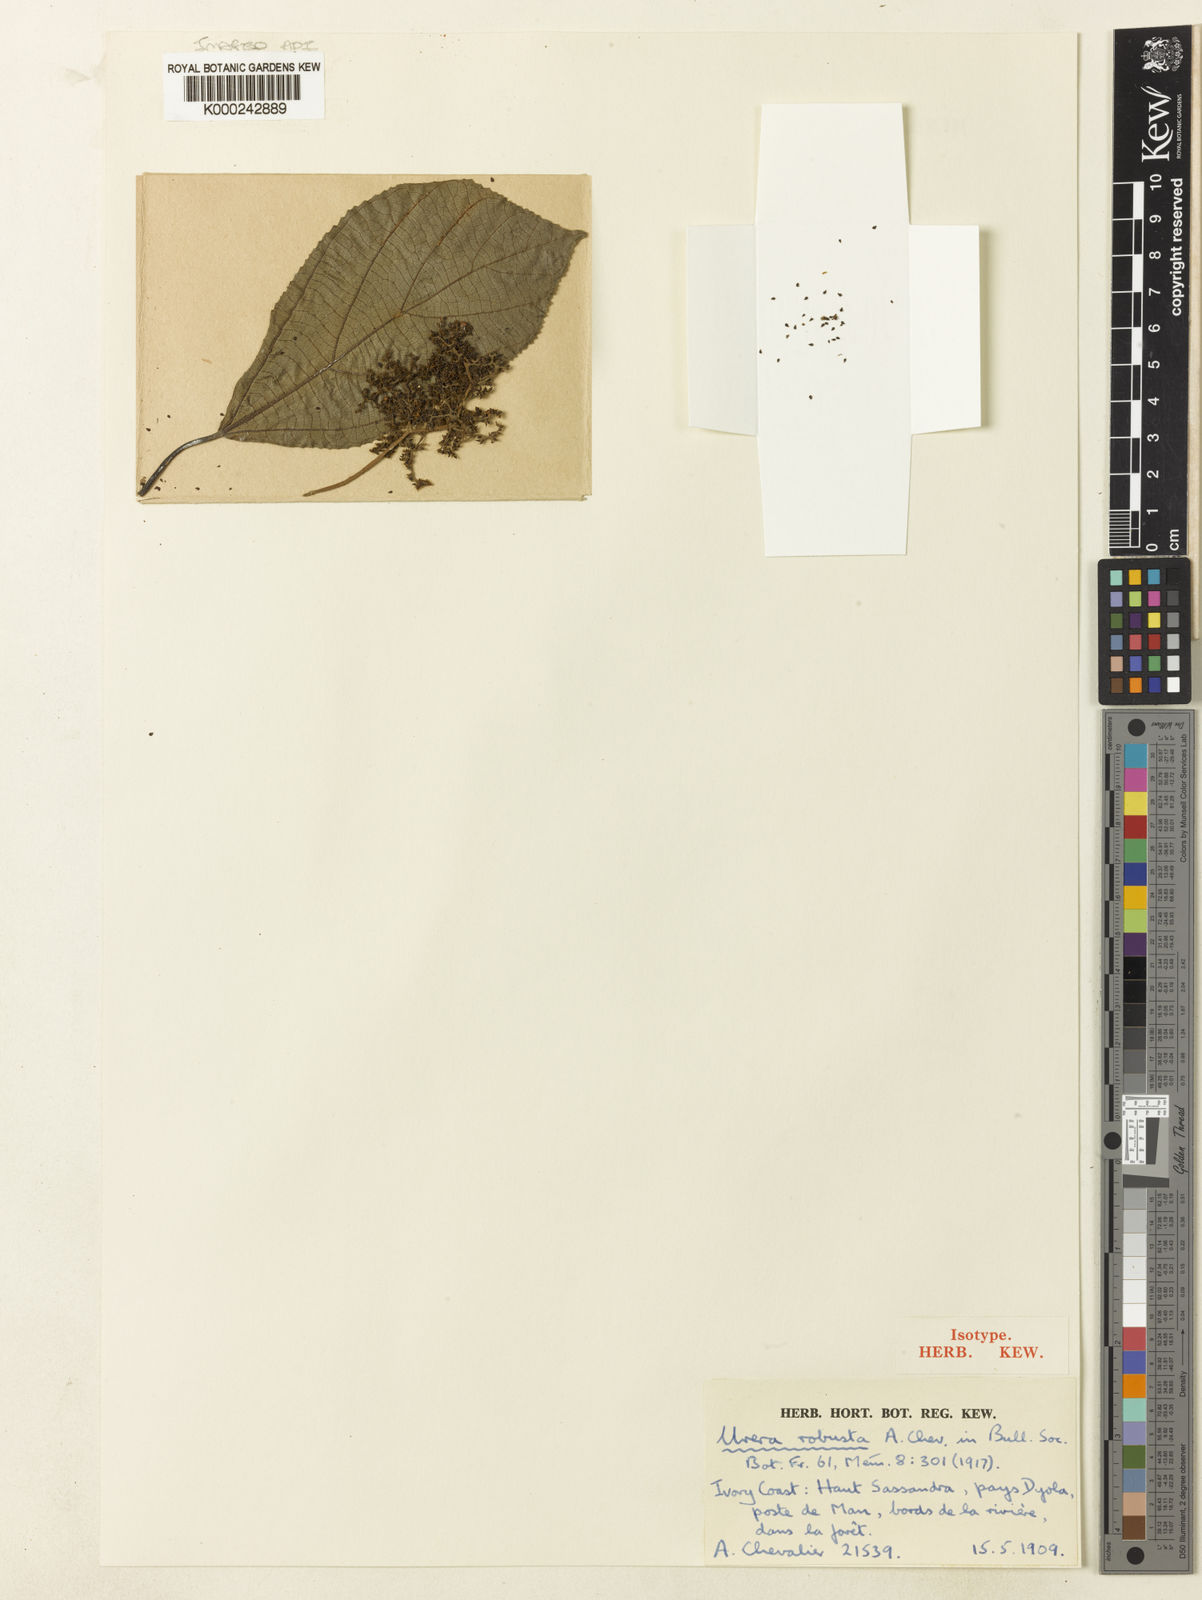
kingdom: Plantae
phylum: Tracheophyta
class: Magnoliopsida
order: Rosales
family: Urticaceae
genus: Scepocarpus
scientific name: Scepocarpus
